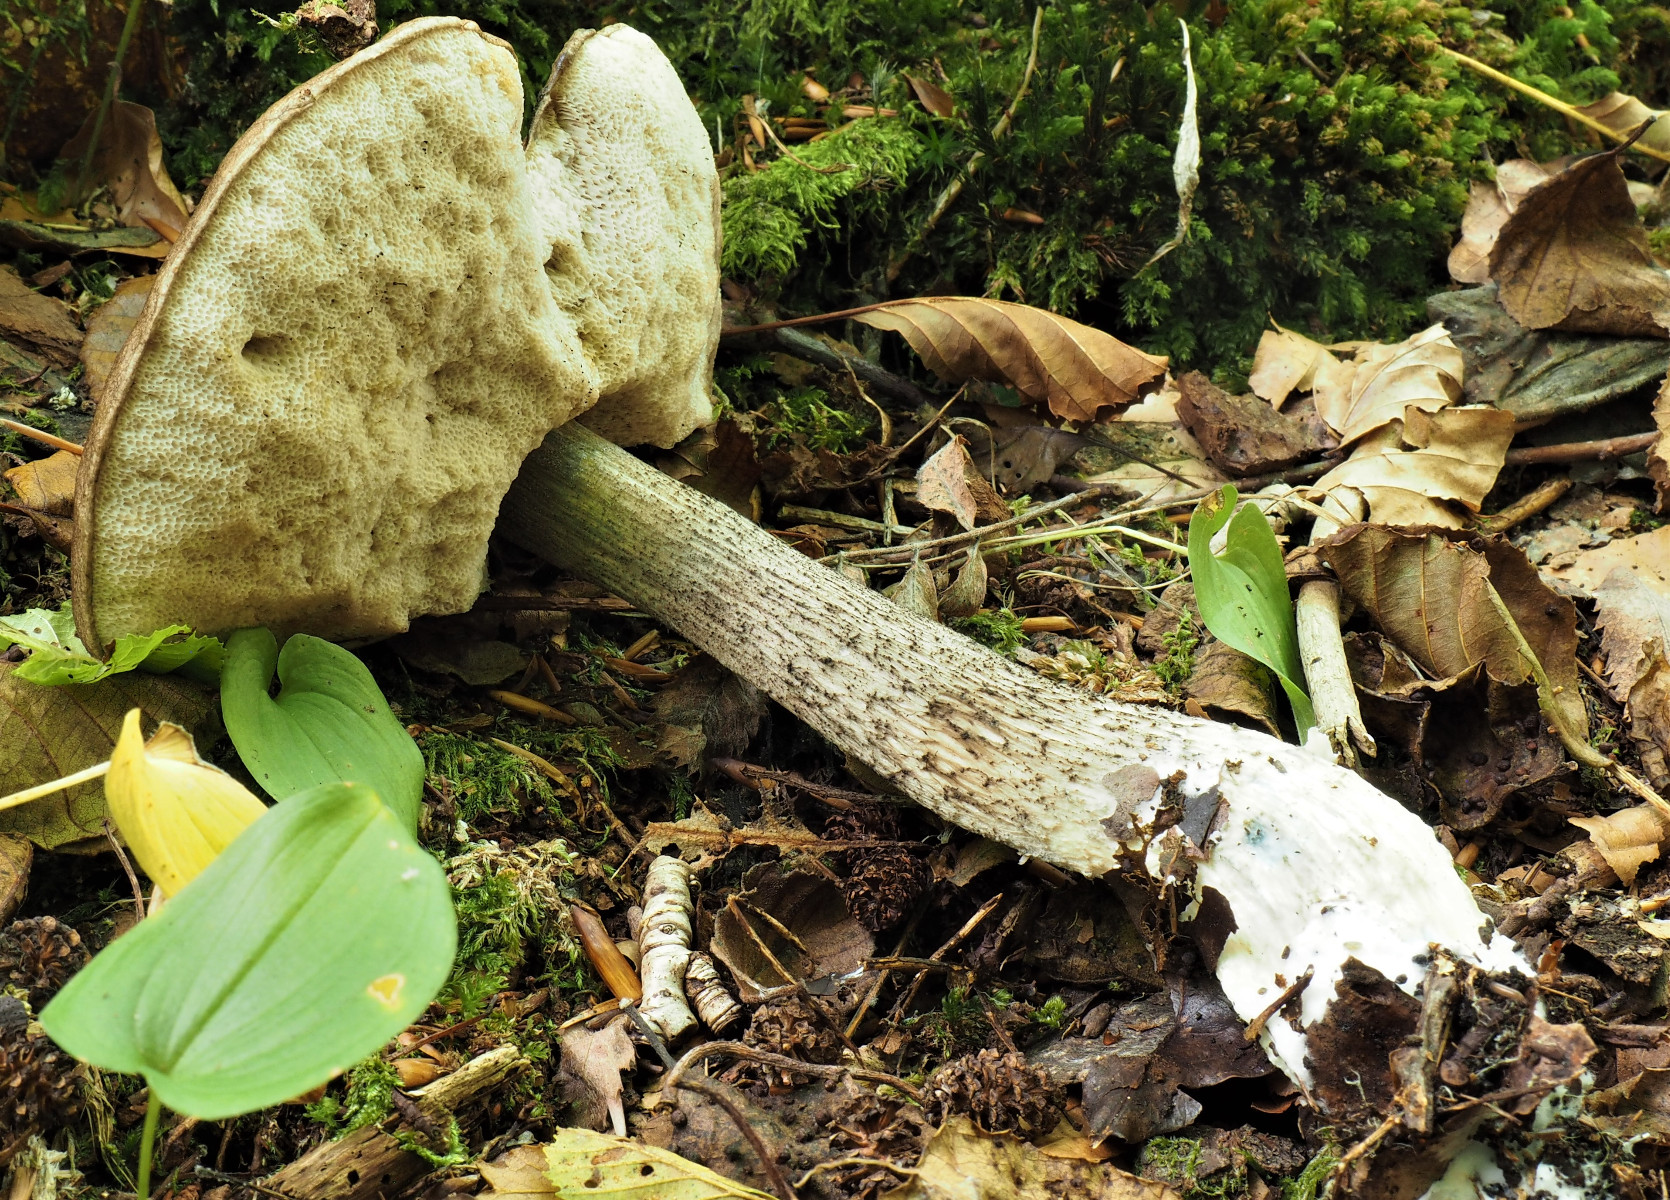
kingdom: Fungi
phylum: Basidiomycota
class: Agaricomycetes
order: Boletales
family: Boletaceae
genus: Leccinum
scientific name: Leccinum cyaneobasileucum
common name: almindelig skælrørhat
